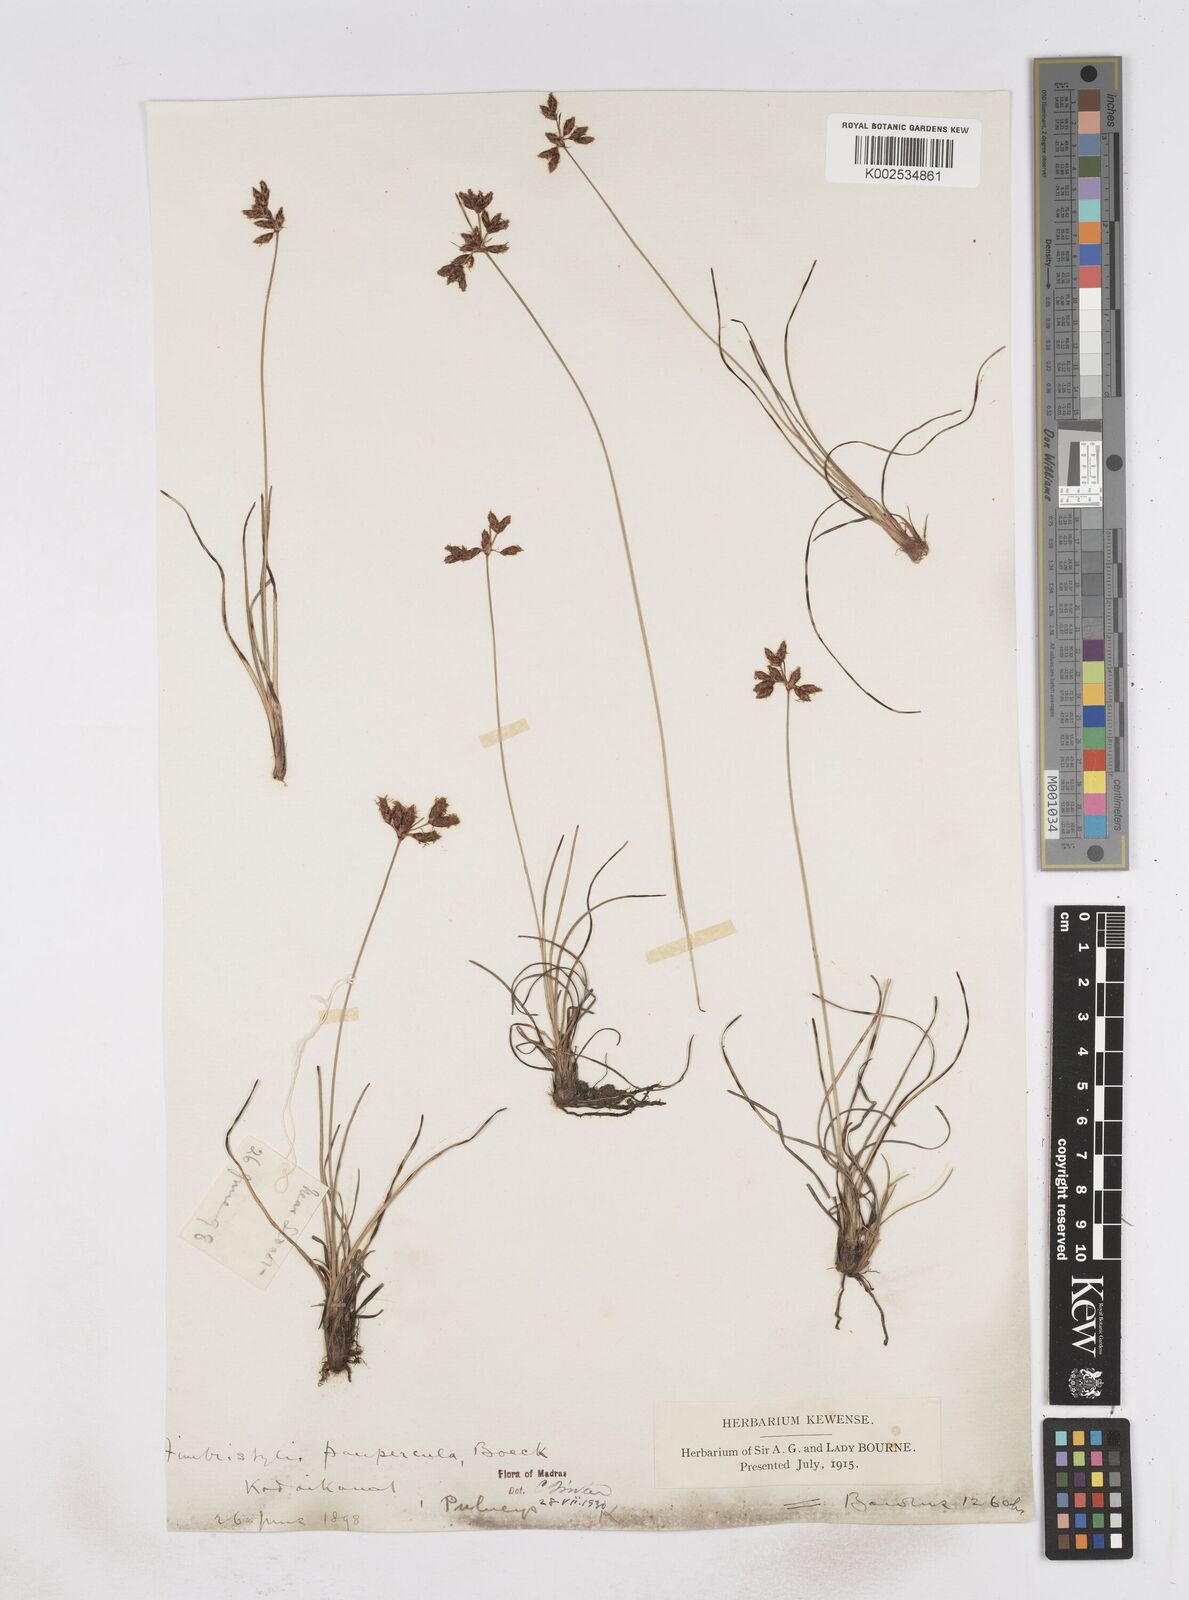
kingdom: Plantae
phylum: Tracheophyta
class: Liliopsida
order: Poales
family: Cyperaceae
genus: Fimbristylis
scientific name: Fimbristylis paupercula
